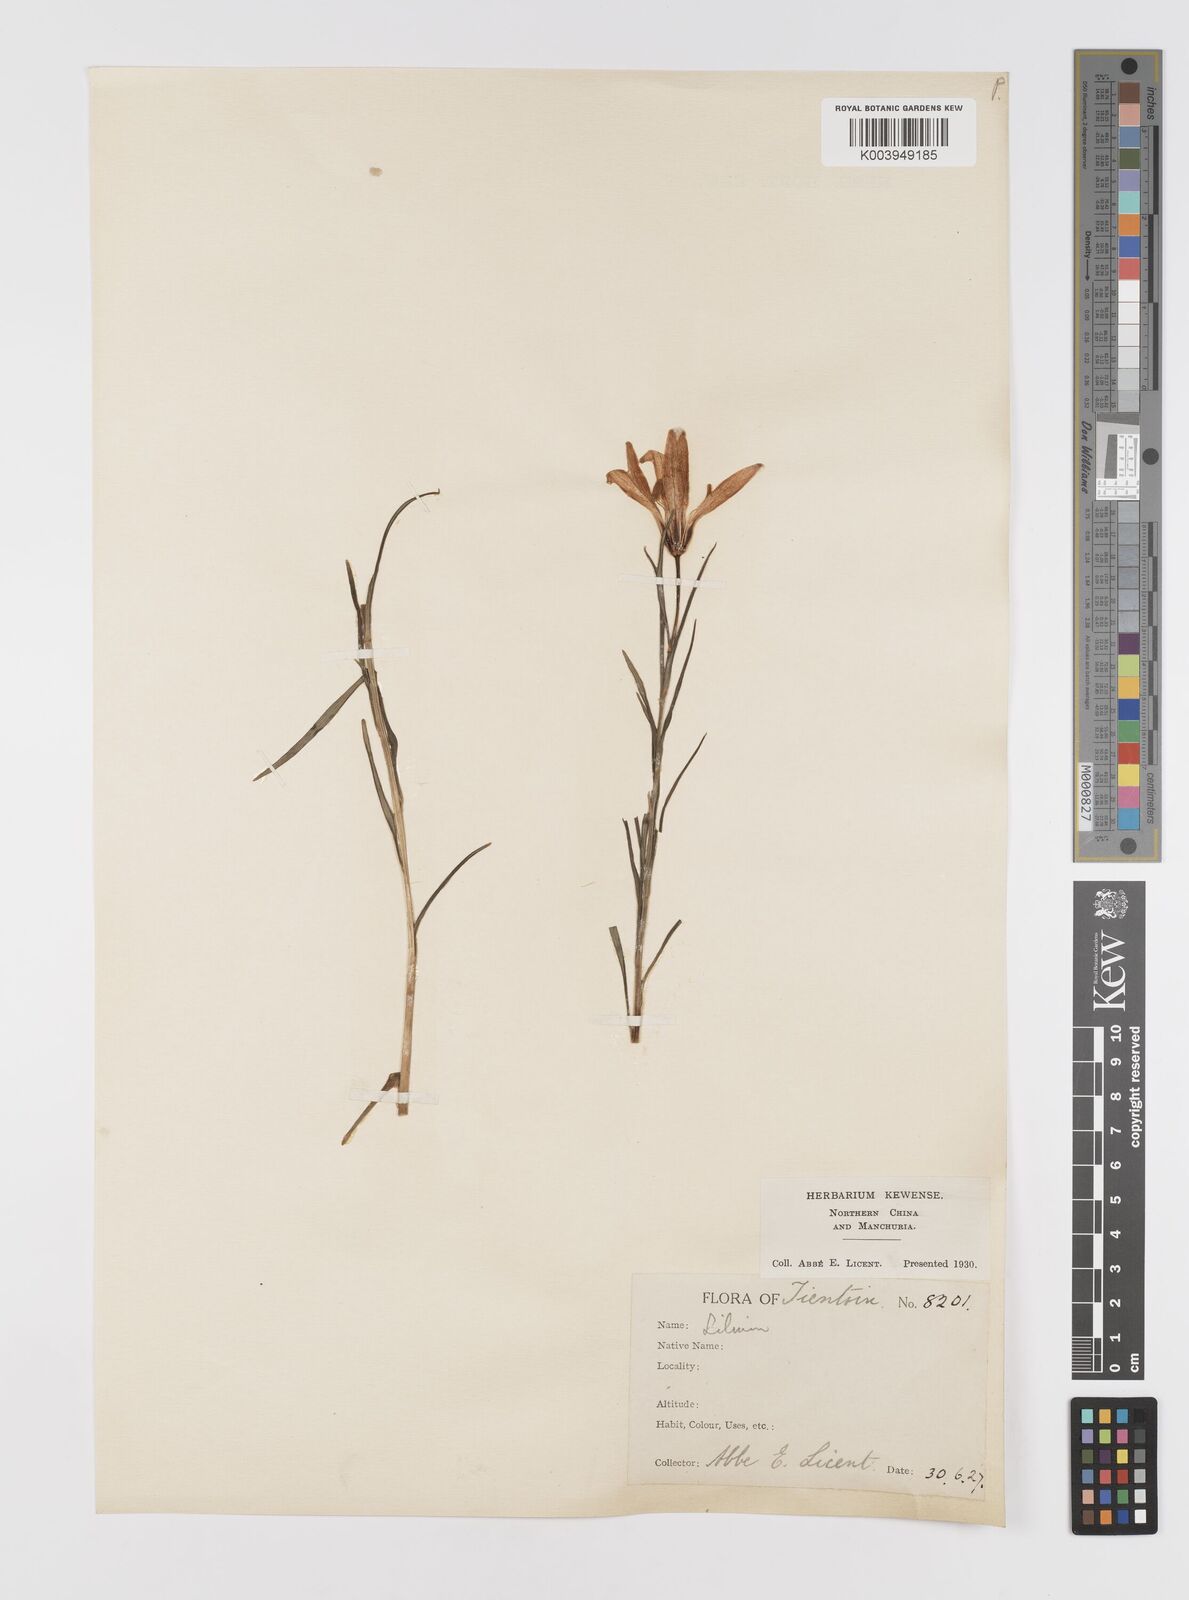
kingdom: Plantae
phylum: Tracheophyta
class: Liliopsida
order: Liliales
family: Liliaceae
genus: Lilium
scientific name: Lilium concolor
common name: Morning-star lily
